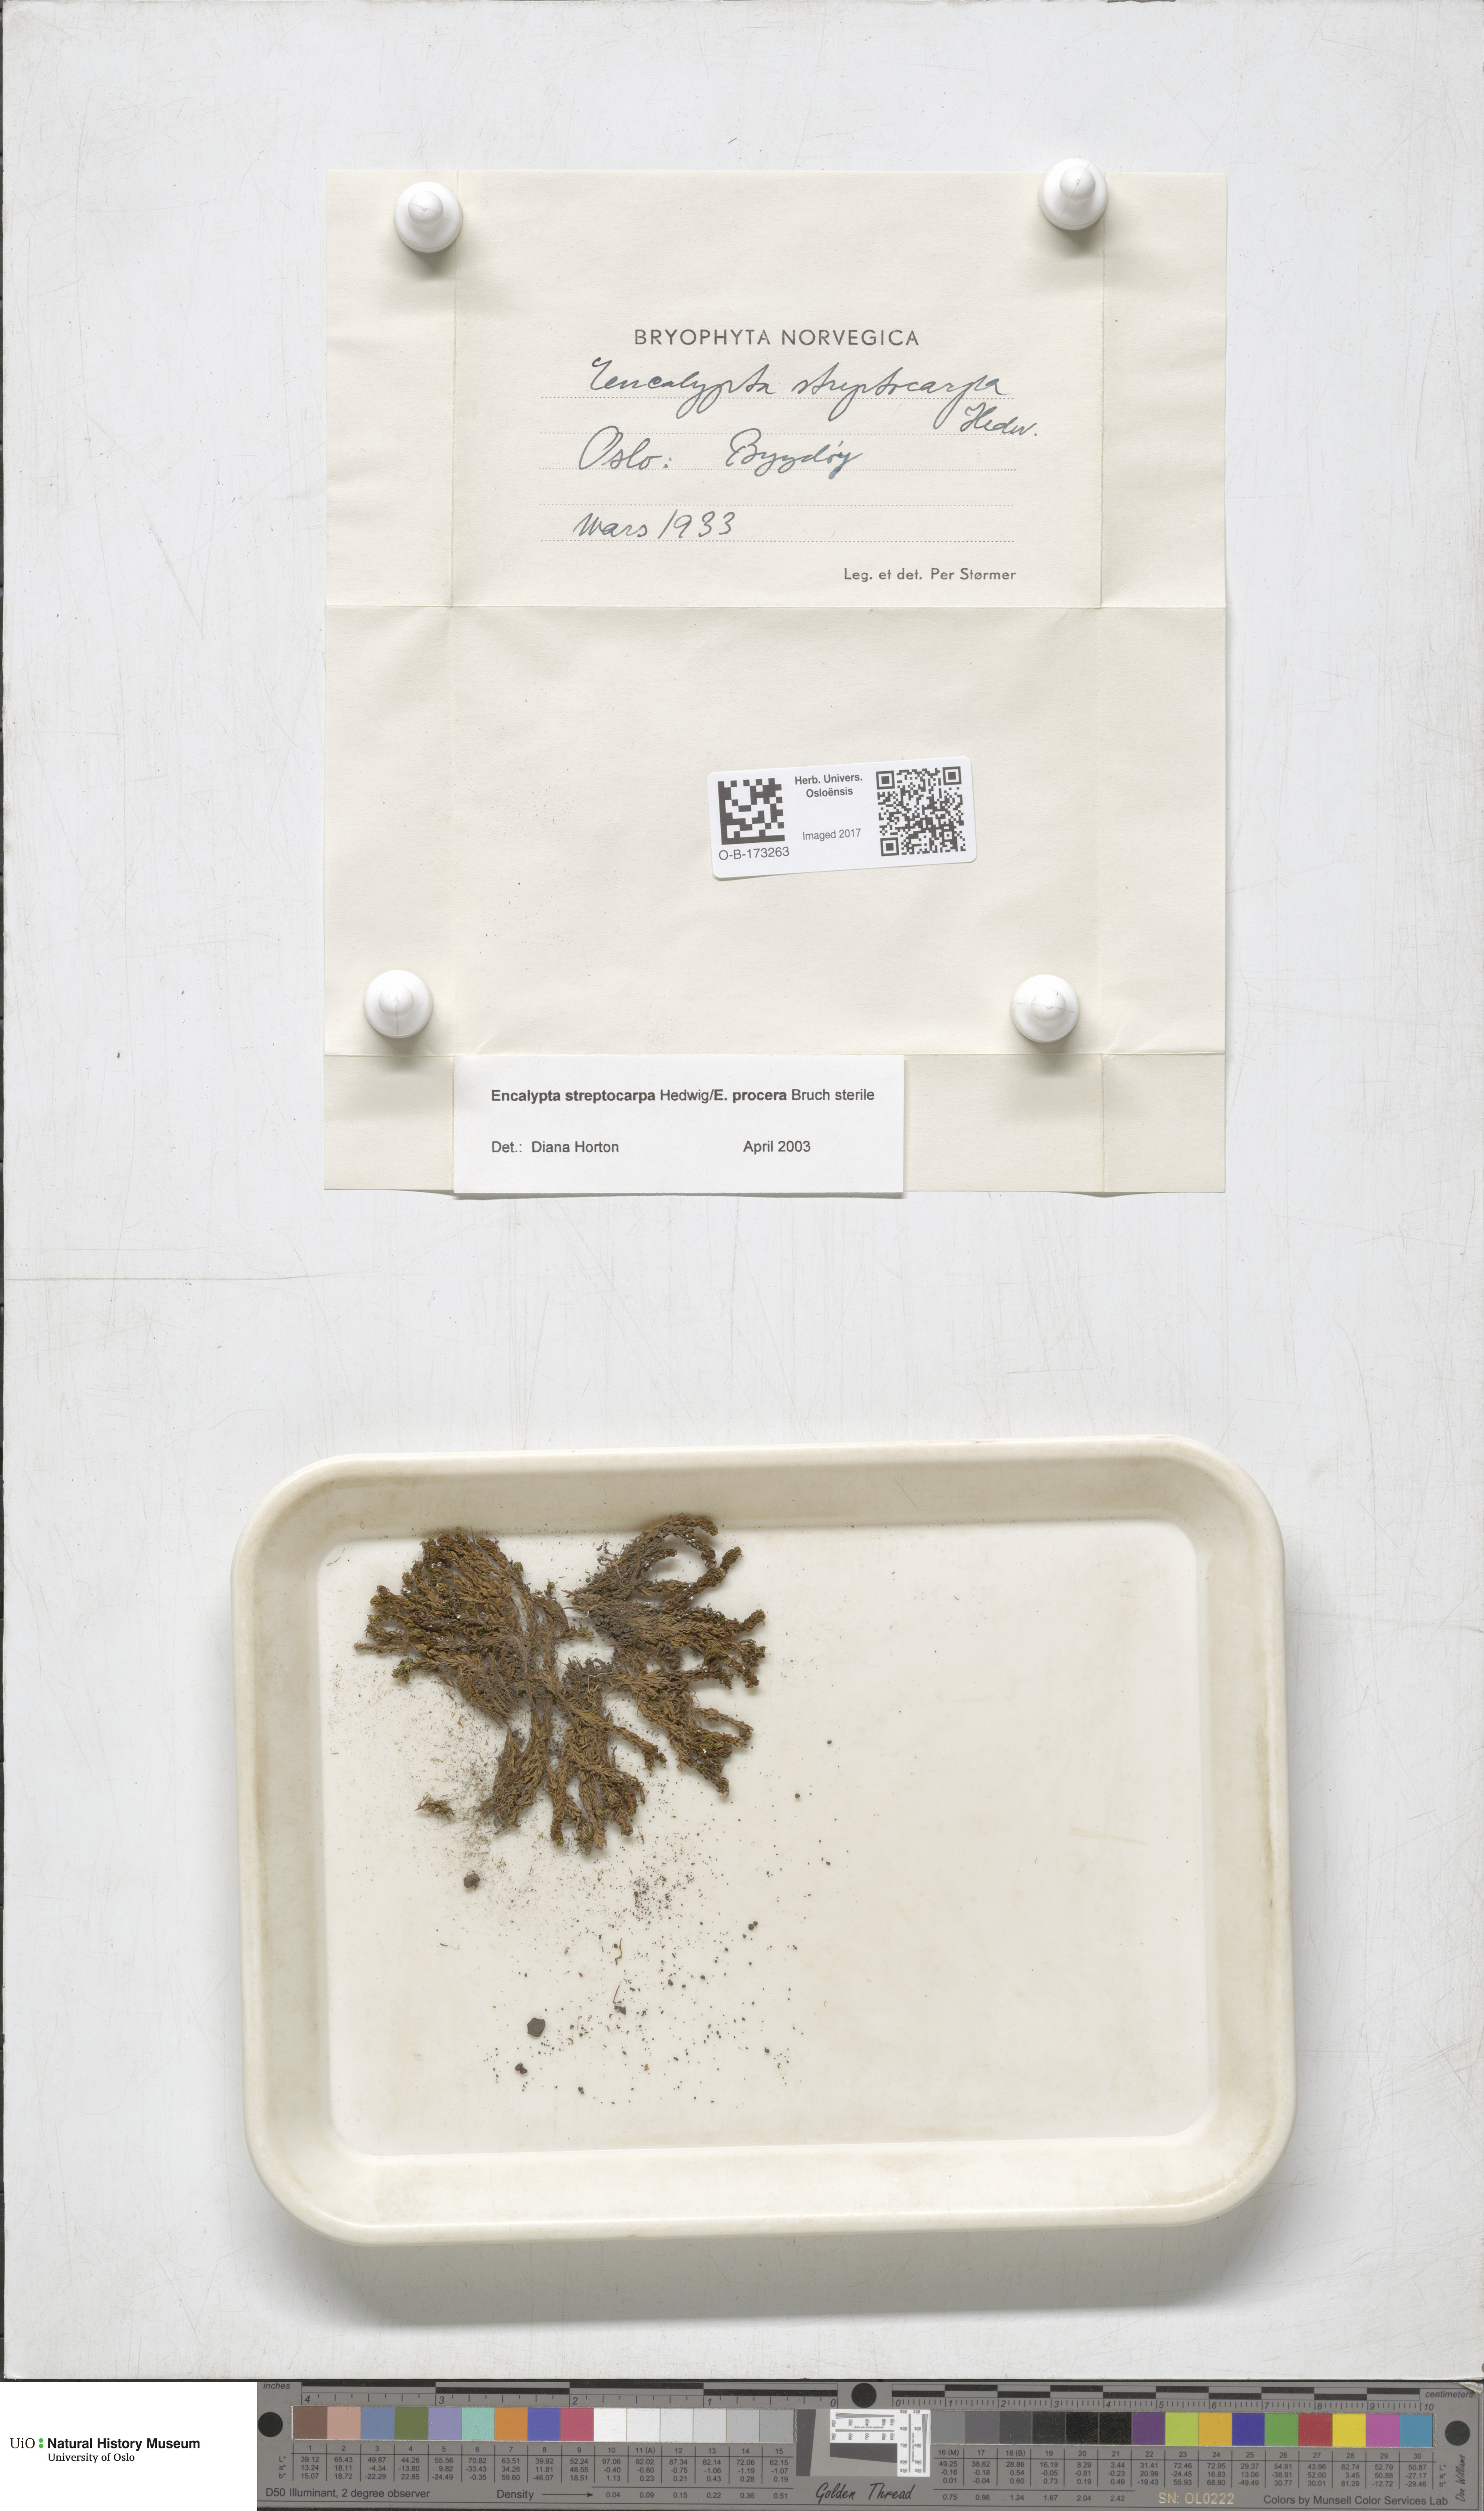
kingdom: Plantae
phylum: Bryophyta
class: Bryopsida
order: Encalyptales
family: Encalyptaceae
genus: Encalypta
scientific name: Encalypta
